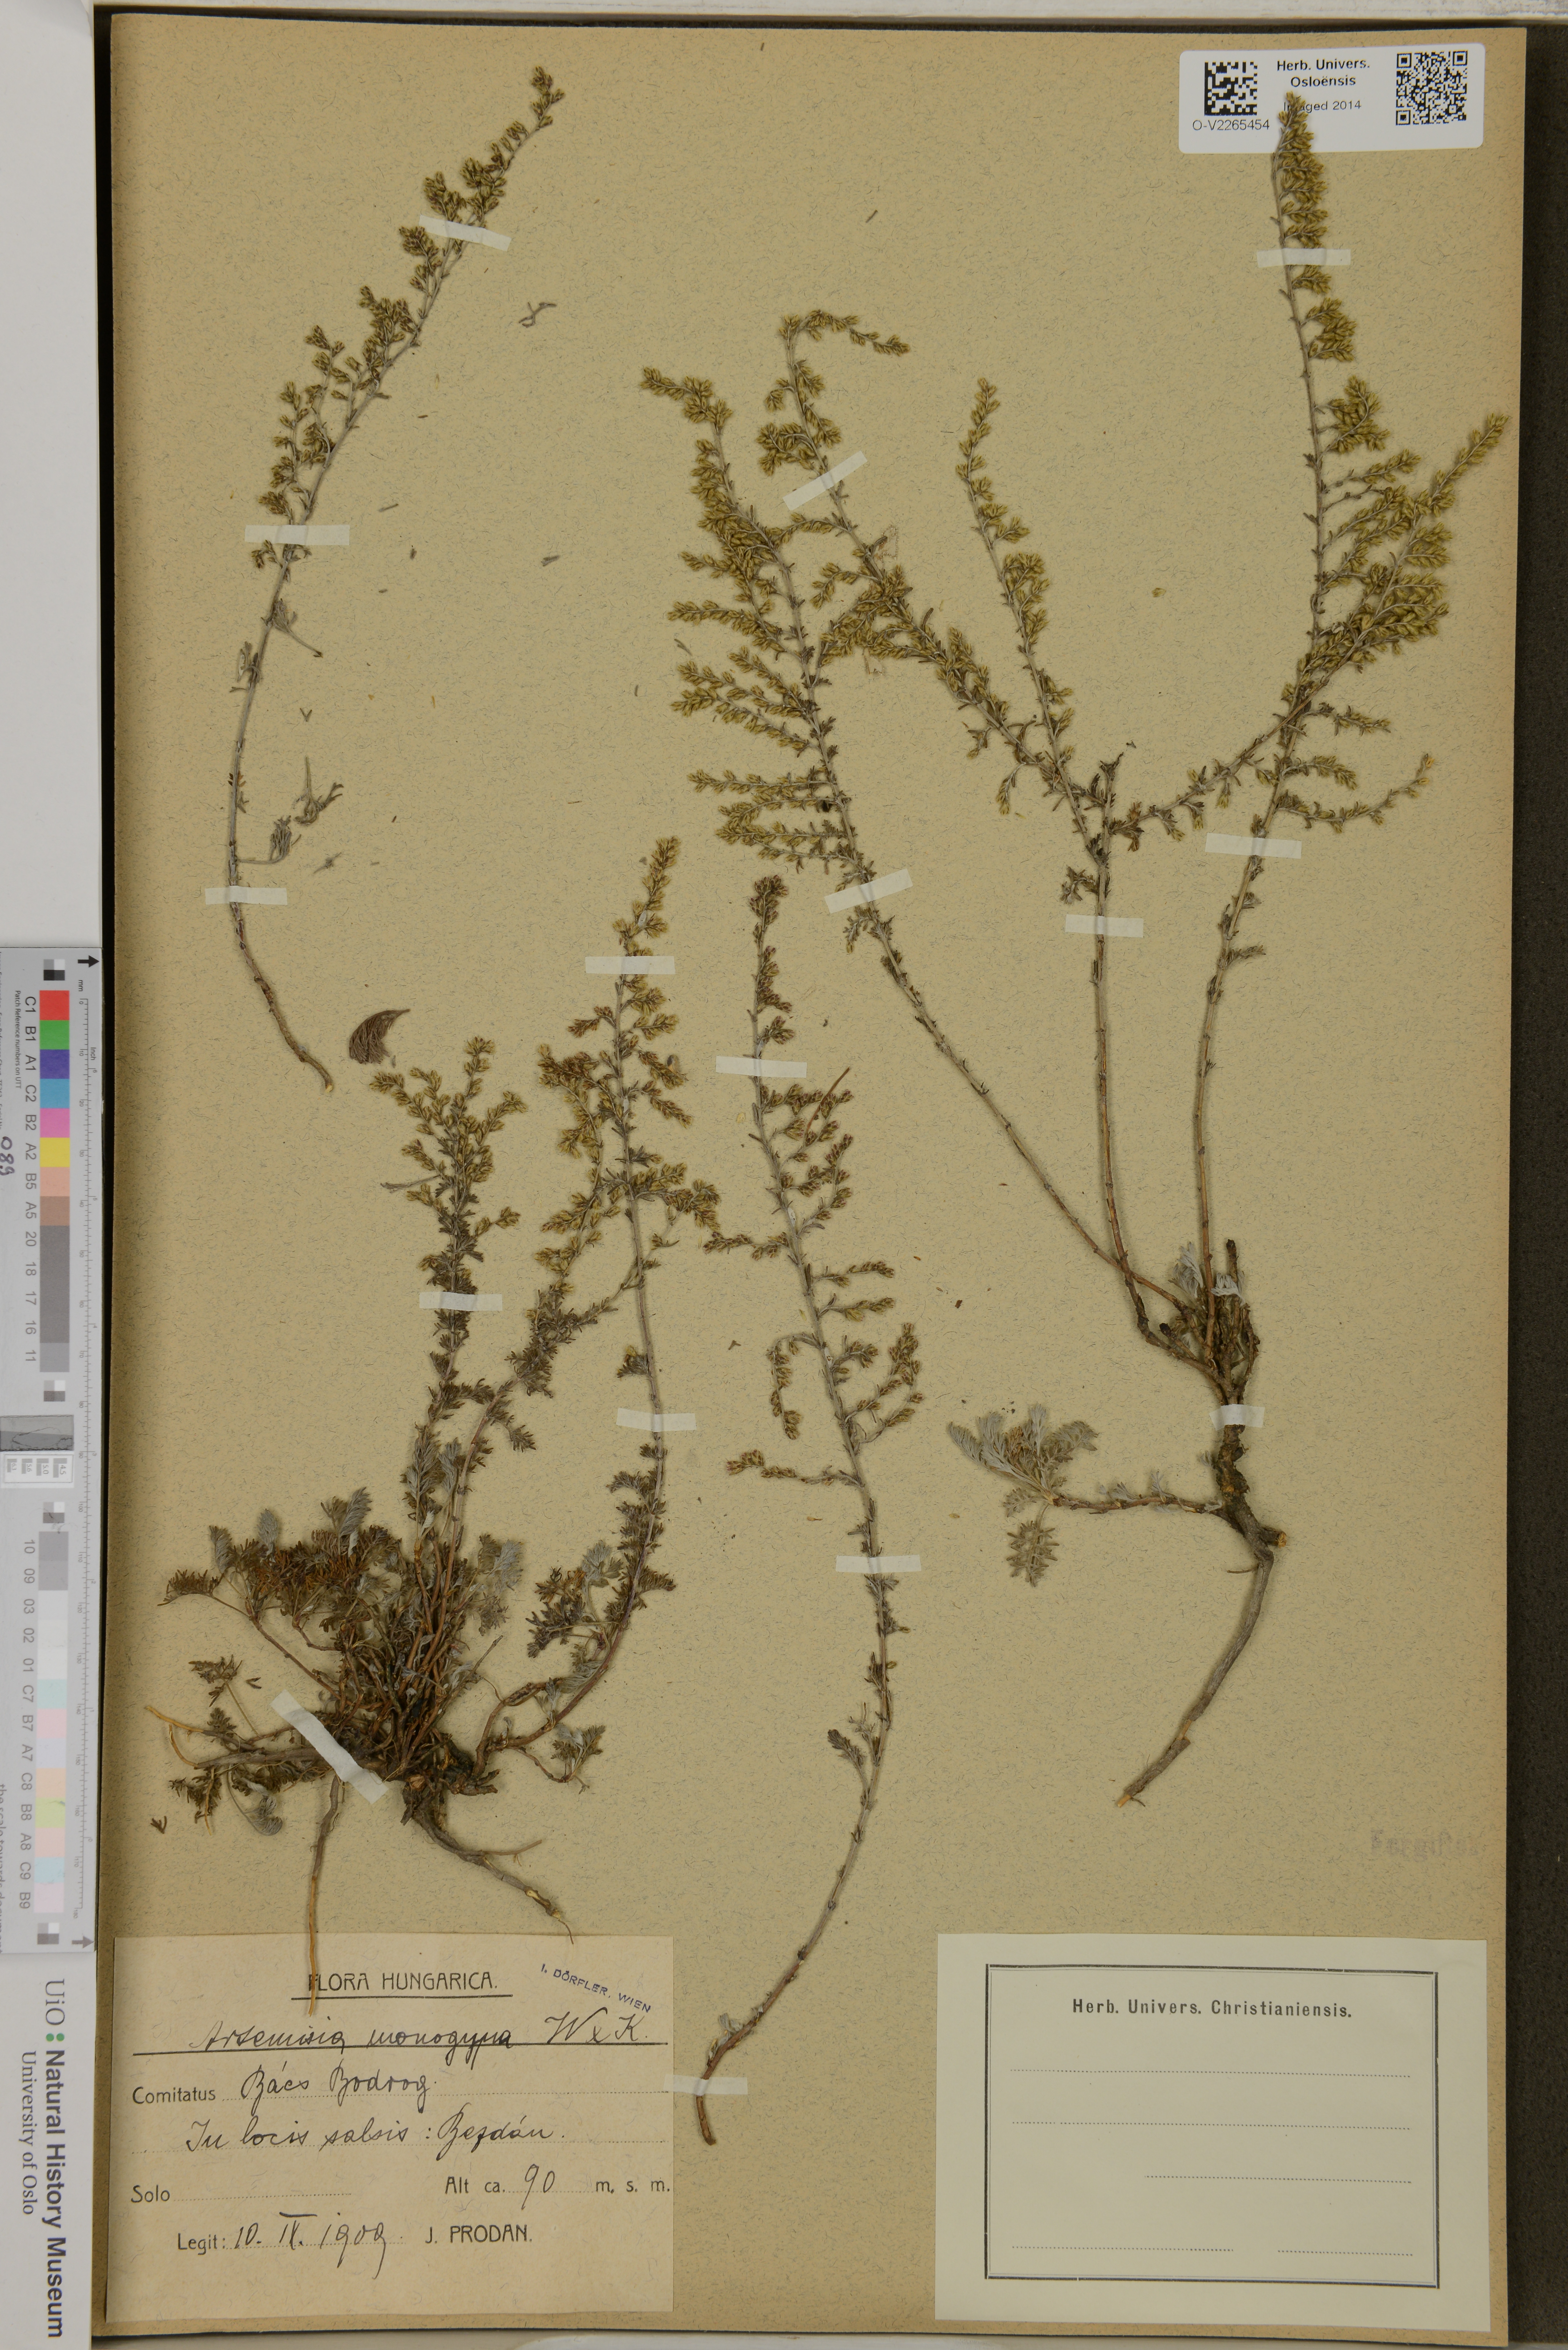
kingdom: Plantae
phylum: Tracheophyta
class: Magnoliopsida
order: Asterales
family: Asteraceae
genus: Artemisia
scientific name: Artemisia
